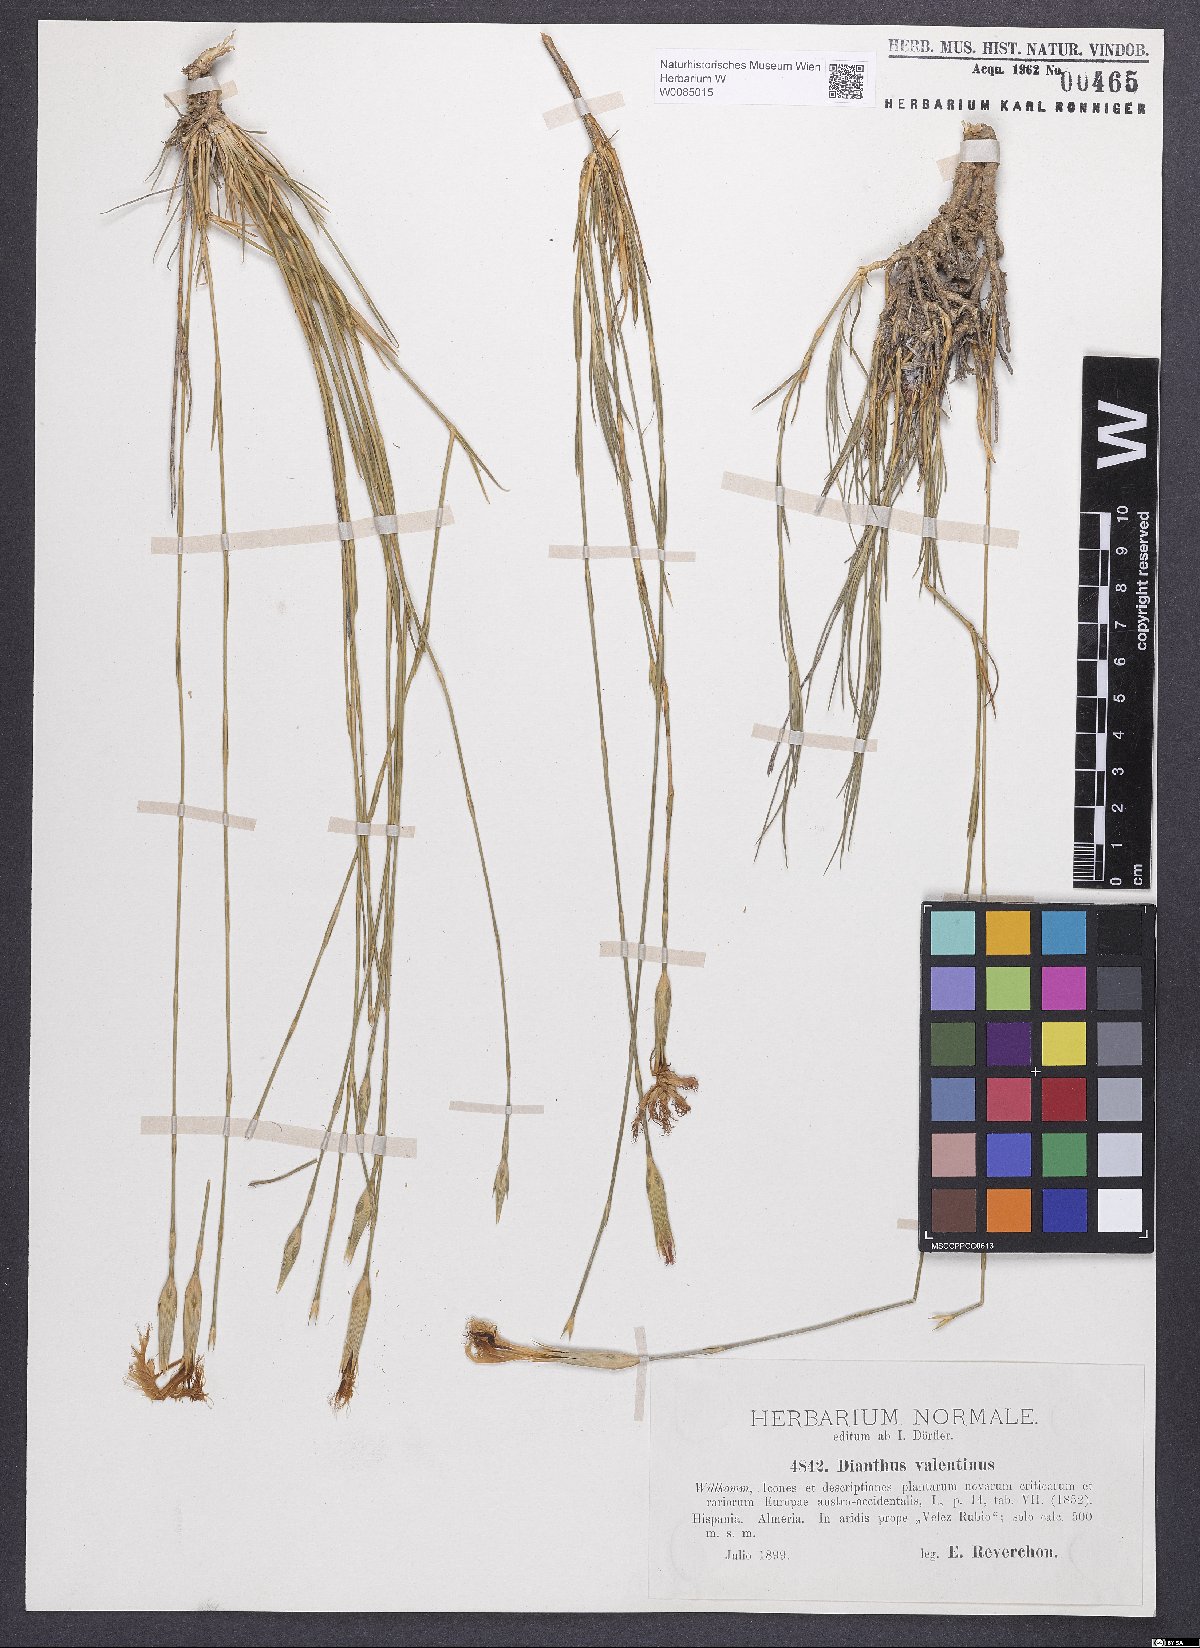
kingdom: Plantae
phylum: Tracheophyta
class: Magnoliopsida
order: Caryophyllales
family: Caryophyllaceae
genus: Dianthus
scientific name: Dianthus broteri
